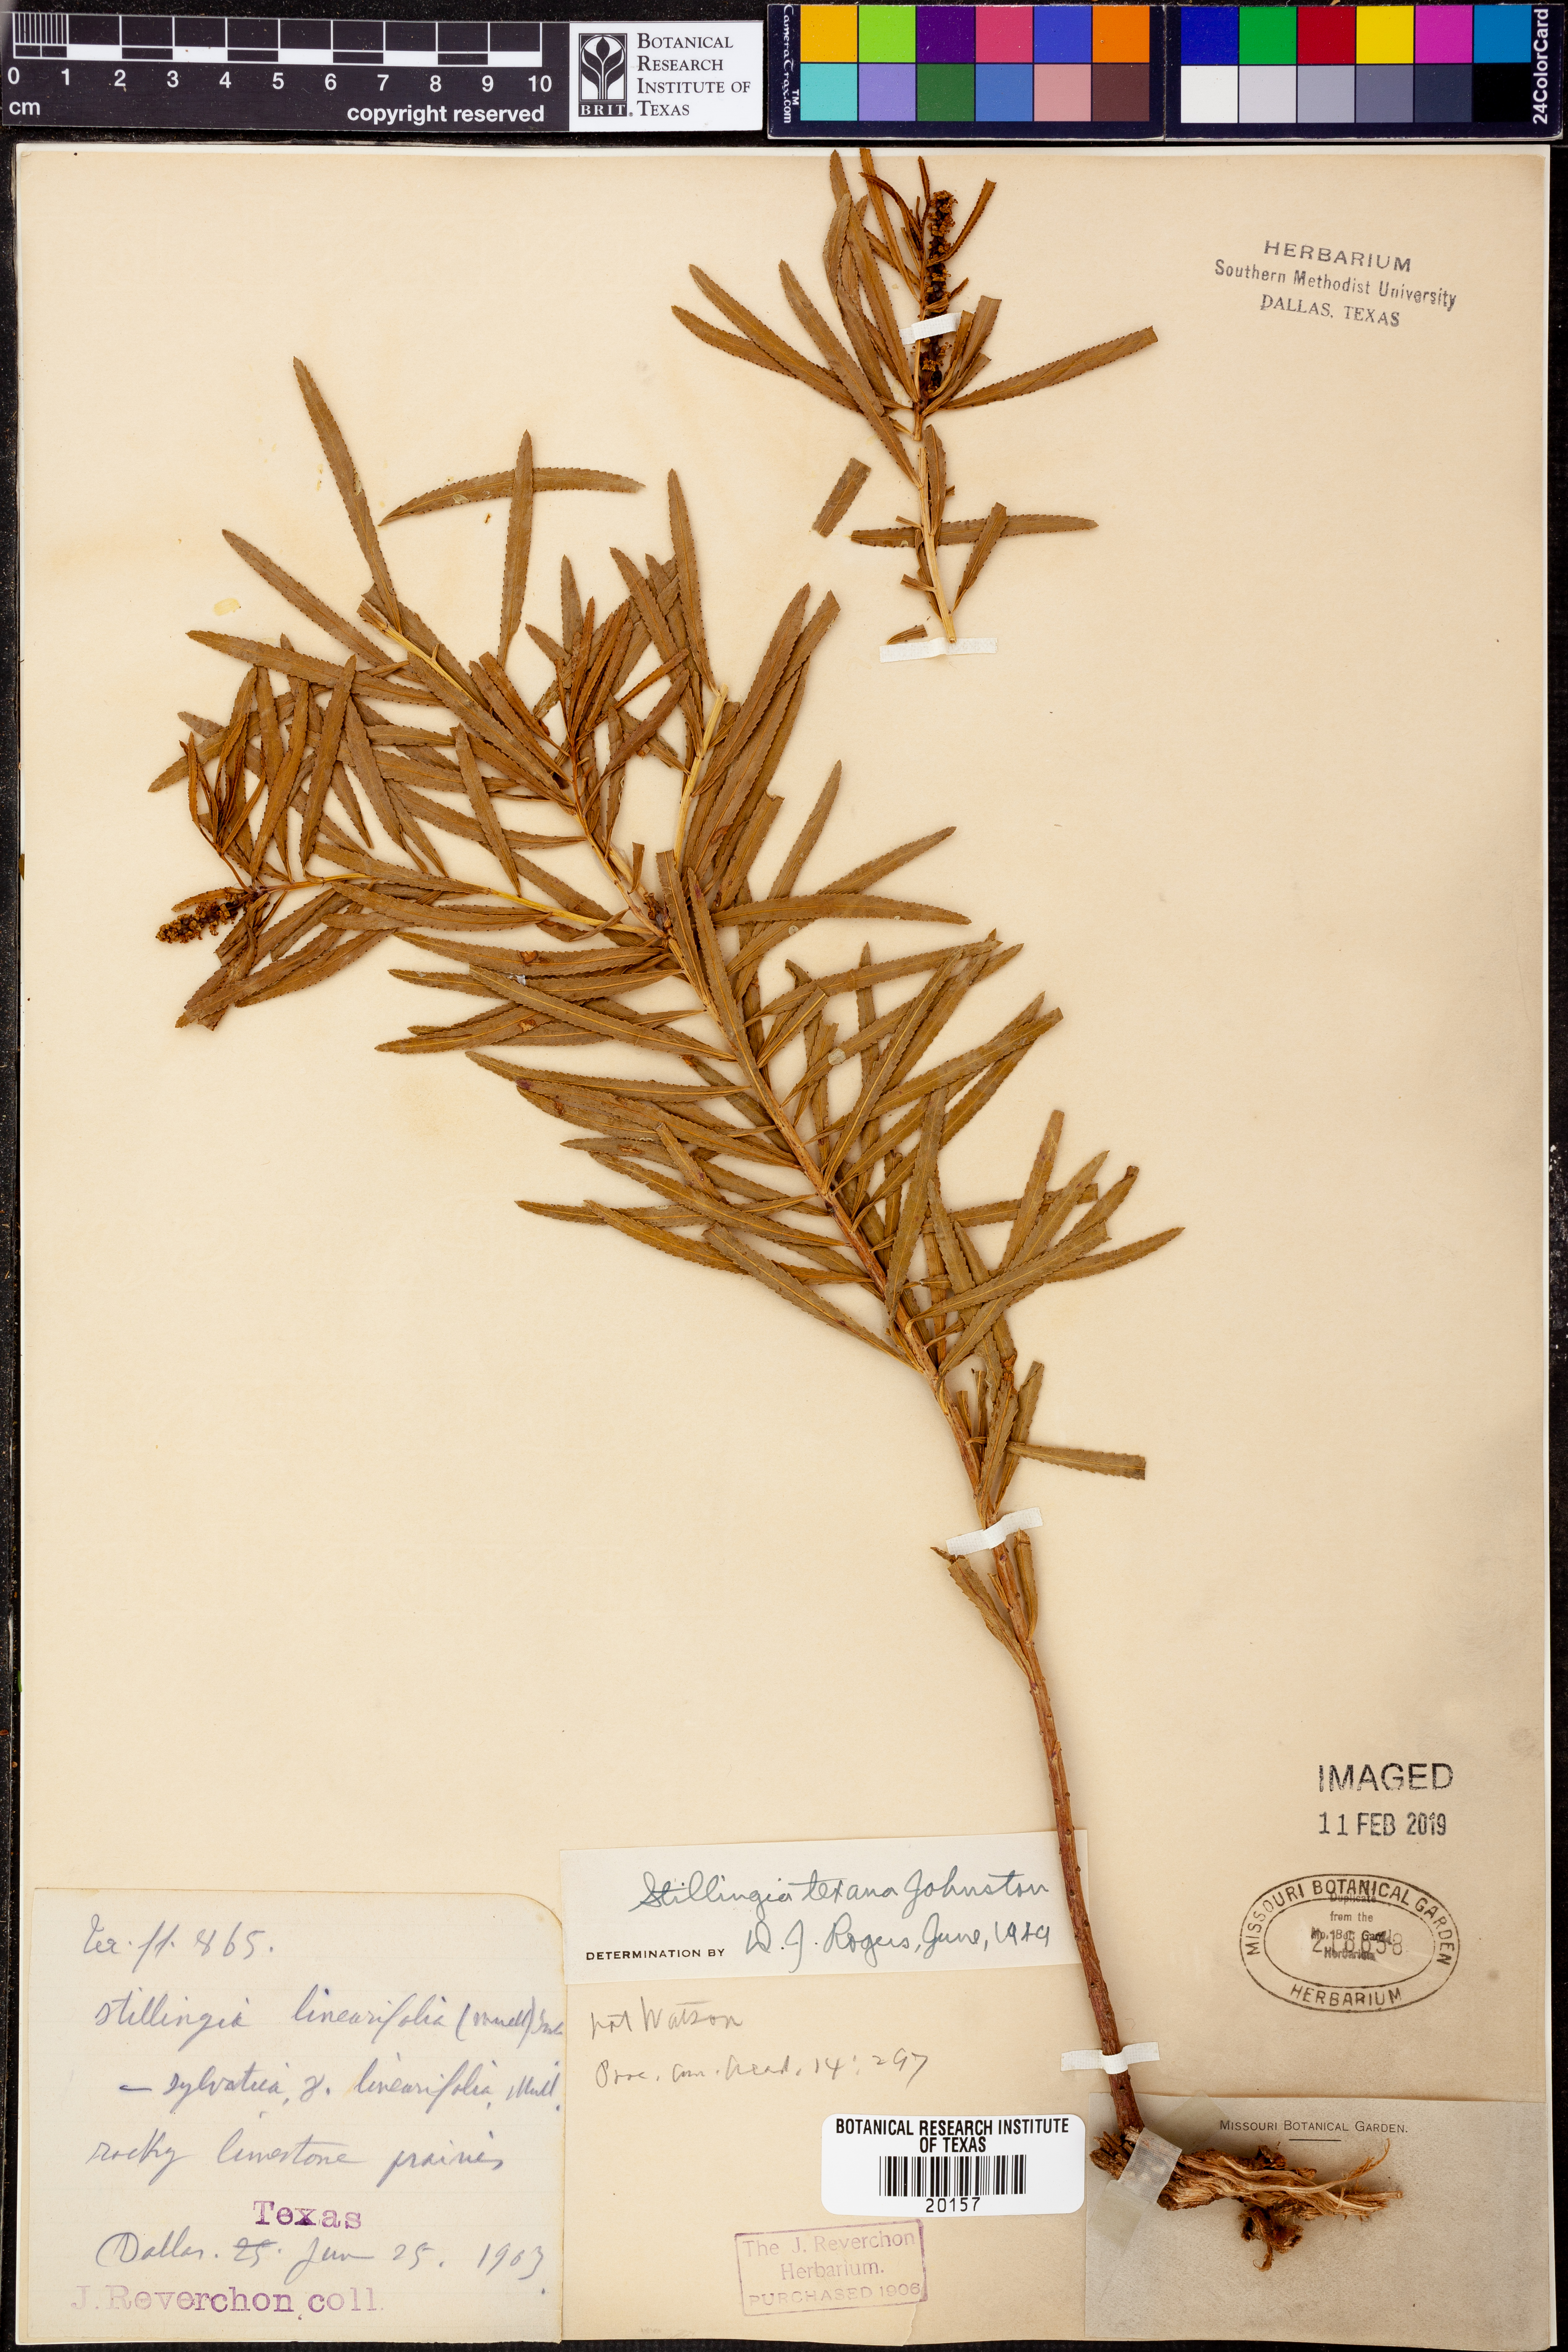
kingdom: Plantae
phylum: Tracheophyta
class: Magnoliopsida
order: Malpighiales
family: Euphorbiaceae
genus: Stillingia
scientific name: Stillingia texana
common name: Texas stillingia
